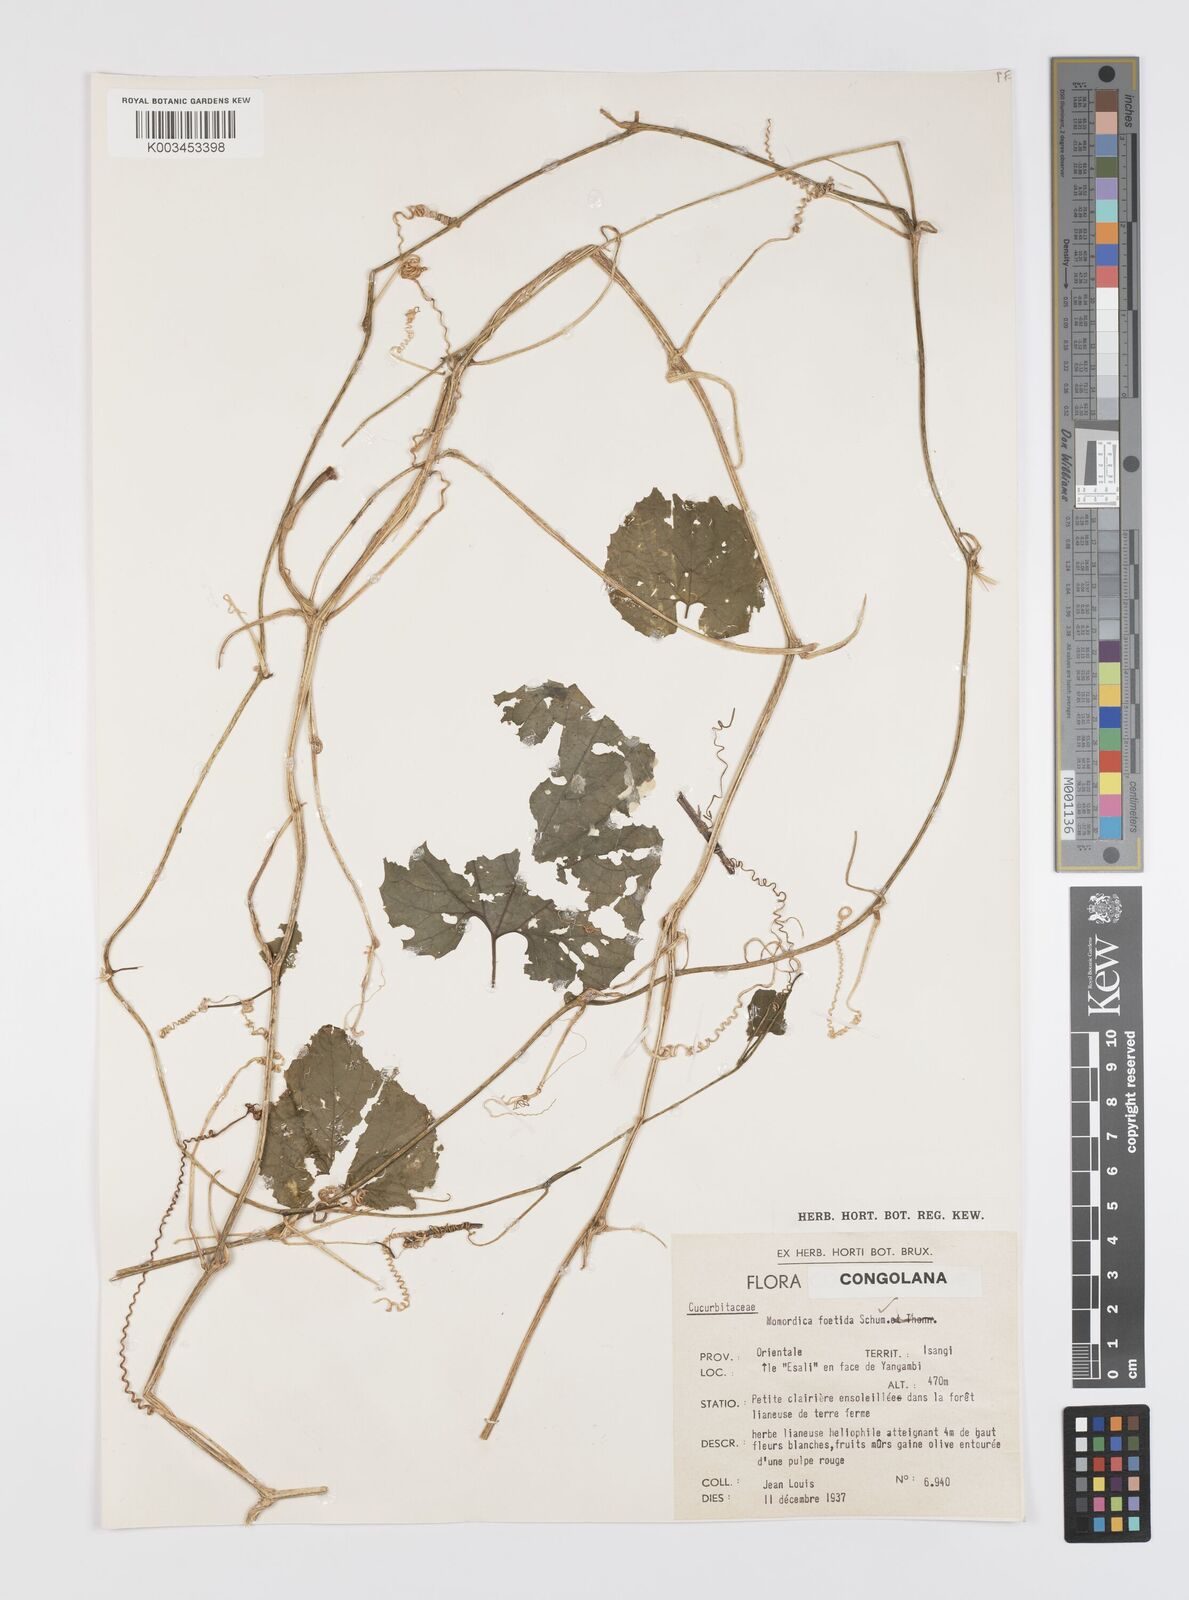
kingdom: Plantae
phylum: Tracheophyta
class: Magnoliopsida
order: Cucurbitales
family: Cucurbitaceae
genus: Momordica
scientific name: Momordica foetida
